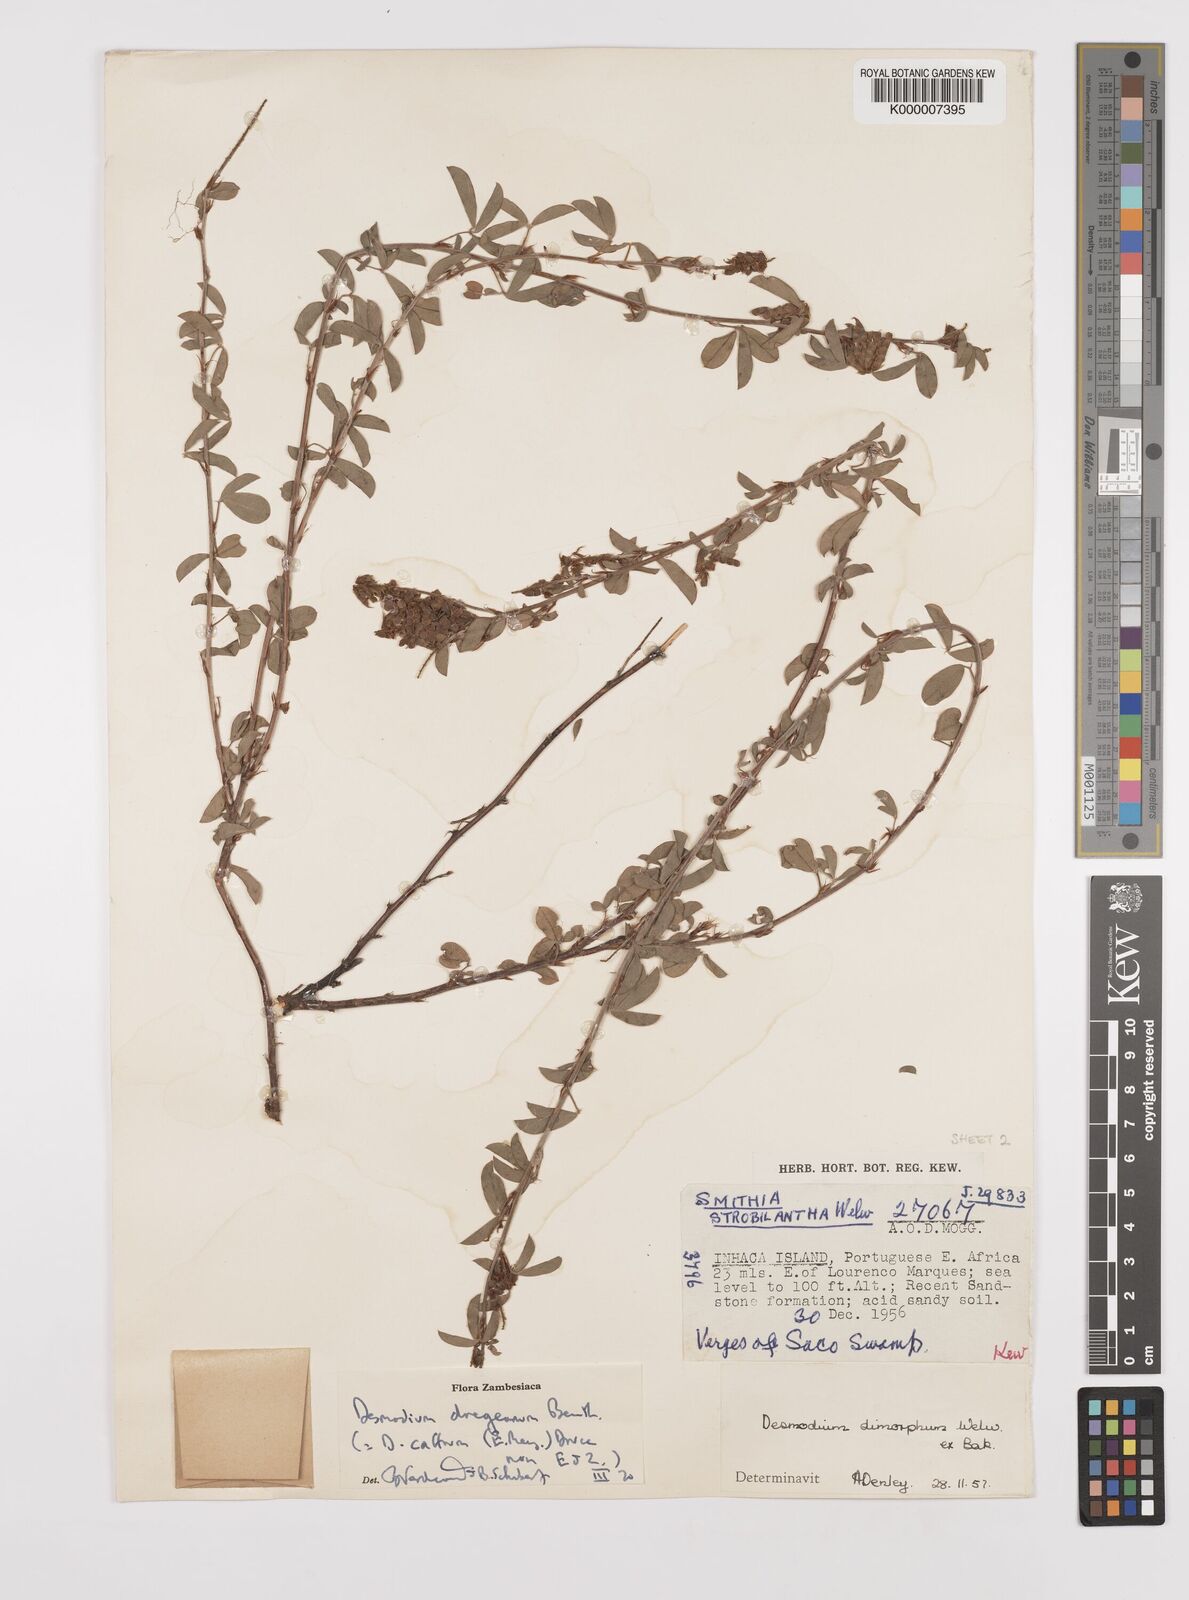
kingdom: Plantae
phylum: Tracheophyta
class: Magnoliopsida
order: Fabales
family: Fabaceae
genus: Grona
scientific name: Grona caffra
